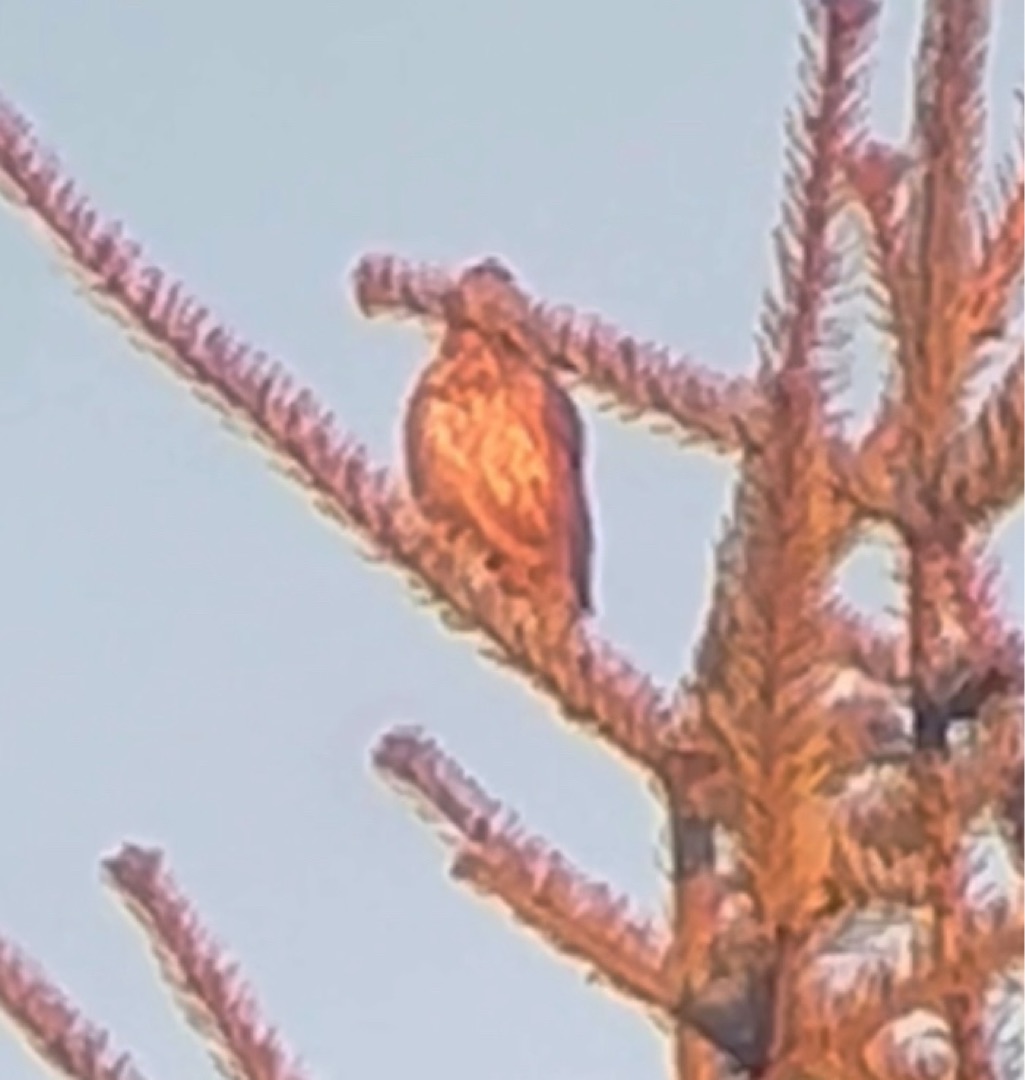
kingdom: Animalia
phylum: Chordata
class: Aves
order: Passeriformes
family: Turdidae
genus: Turdus
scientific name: Turdus philomelos
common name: Sangdrossel
